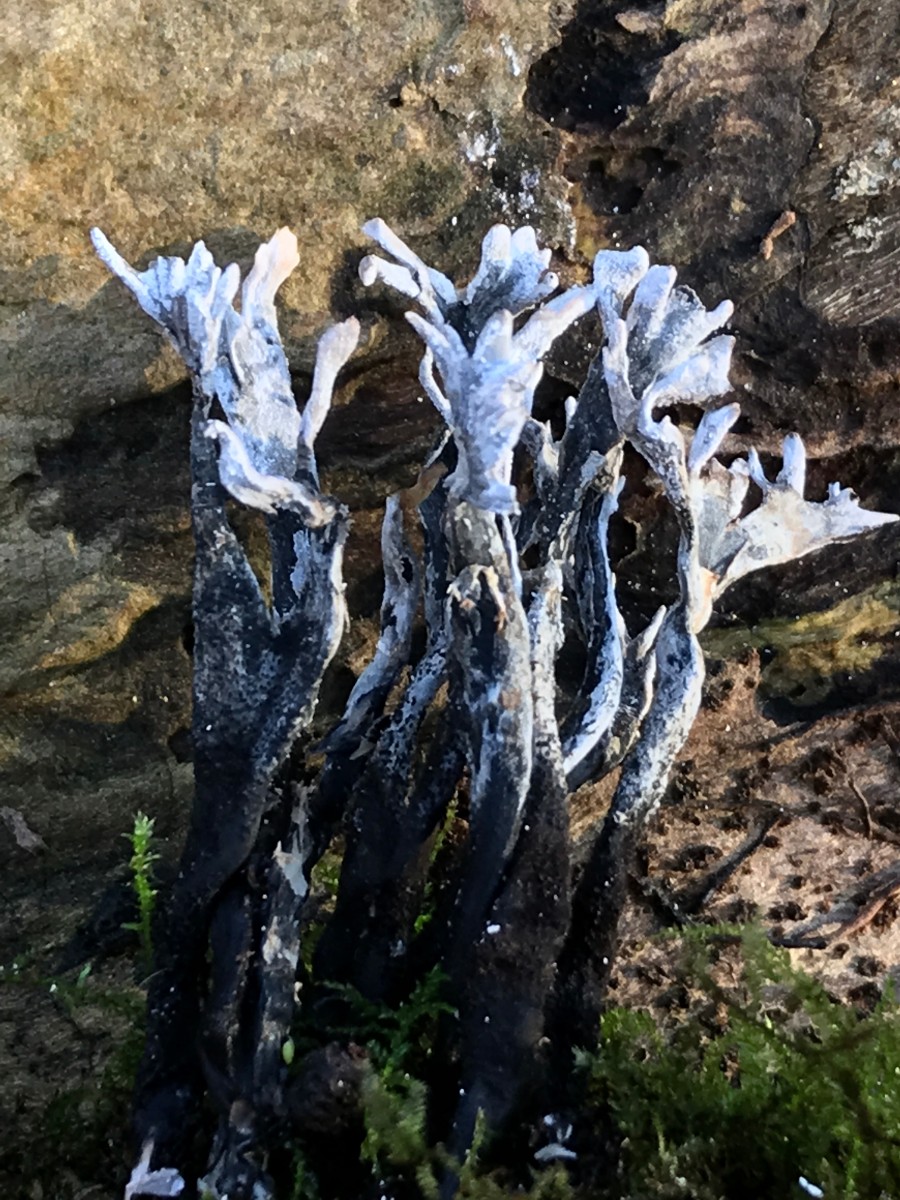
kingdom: Fungi
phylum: Ascomycota
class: Sordariomycetes
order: Xylariales
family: Xylariaceae
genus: Xylaria
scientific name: Xylaria hypoxylon
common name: grenet stødsvamp
